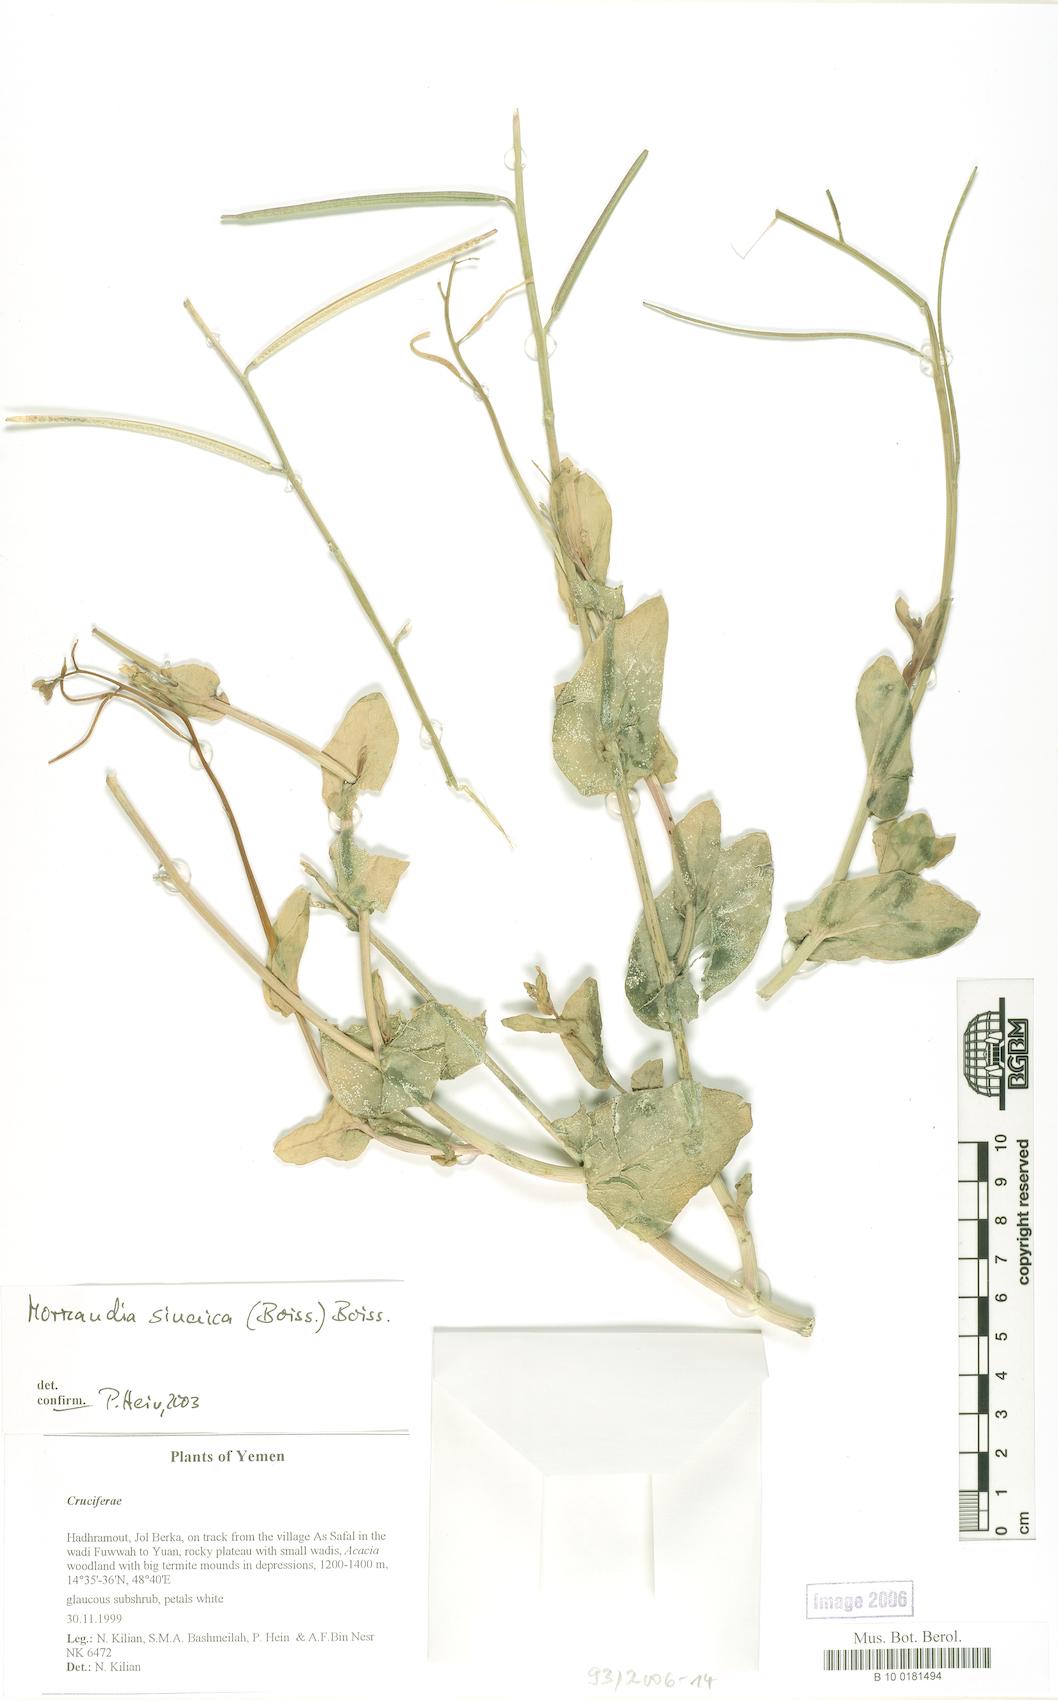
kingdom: Plantae
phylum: Tracheophyta
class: Magnoliopsida
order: Brassicales
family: Brassicaceae
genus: Moricandia
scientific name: Moricandia sinaica
